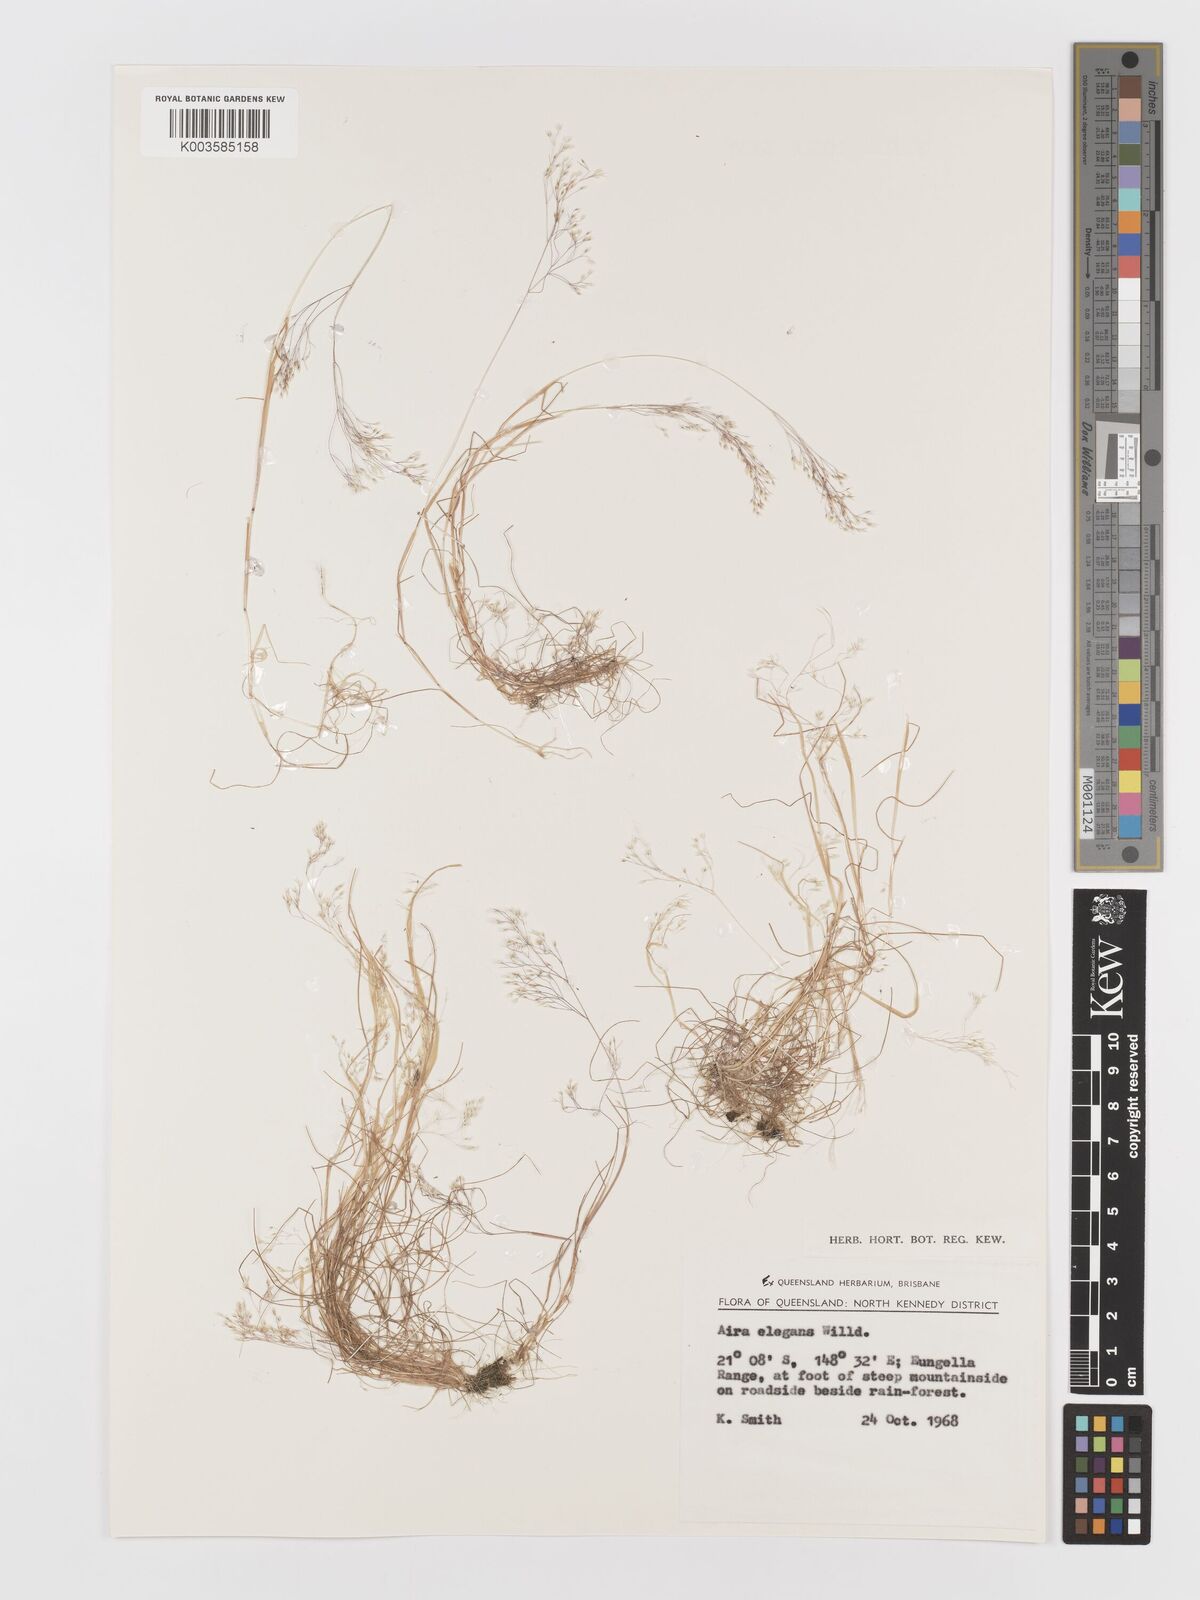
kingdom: Plantae
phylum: Tracheophyta
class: Liliopsida
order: Poales
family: Poaceae
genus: Aira
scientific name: Aira elegans
